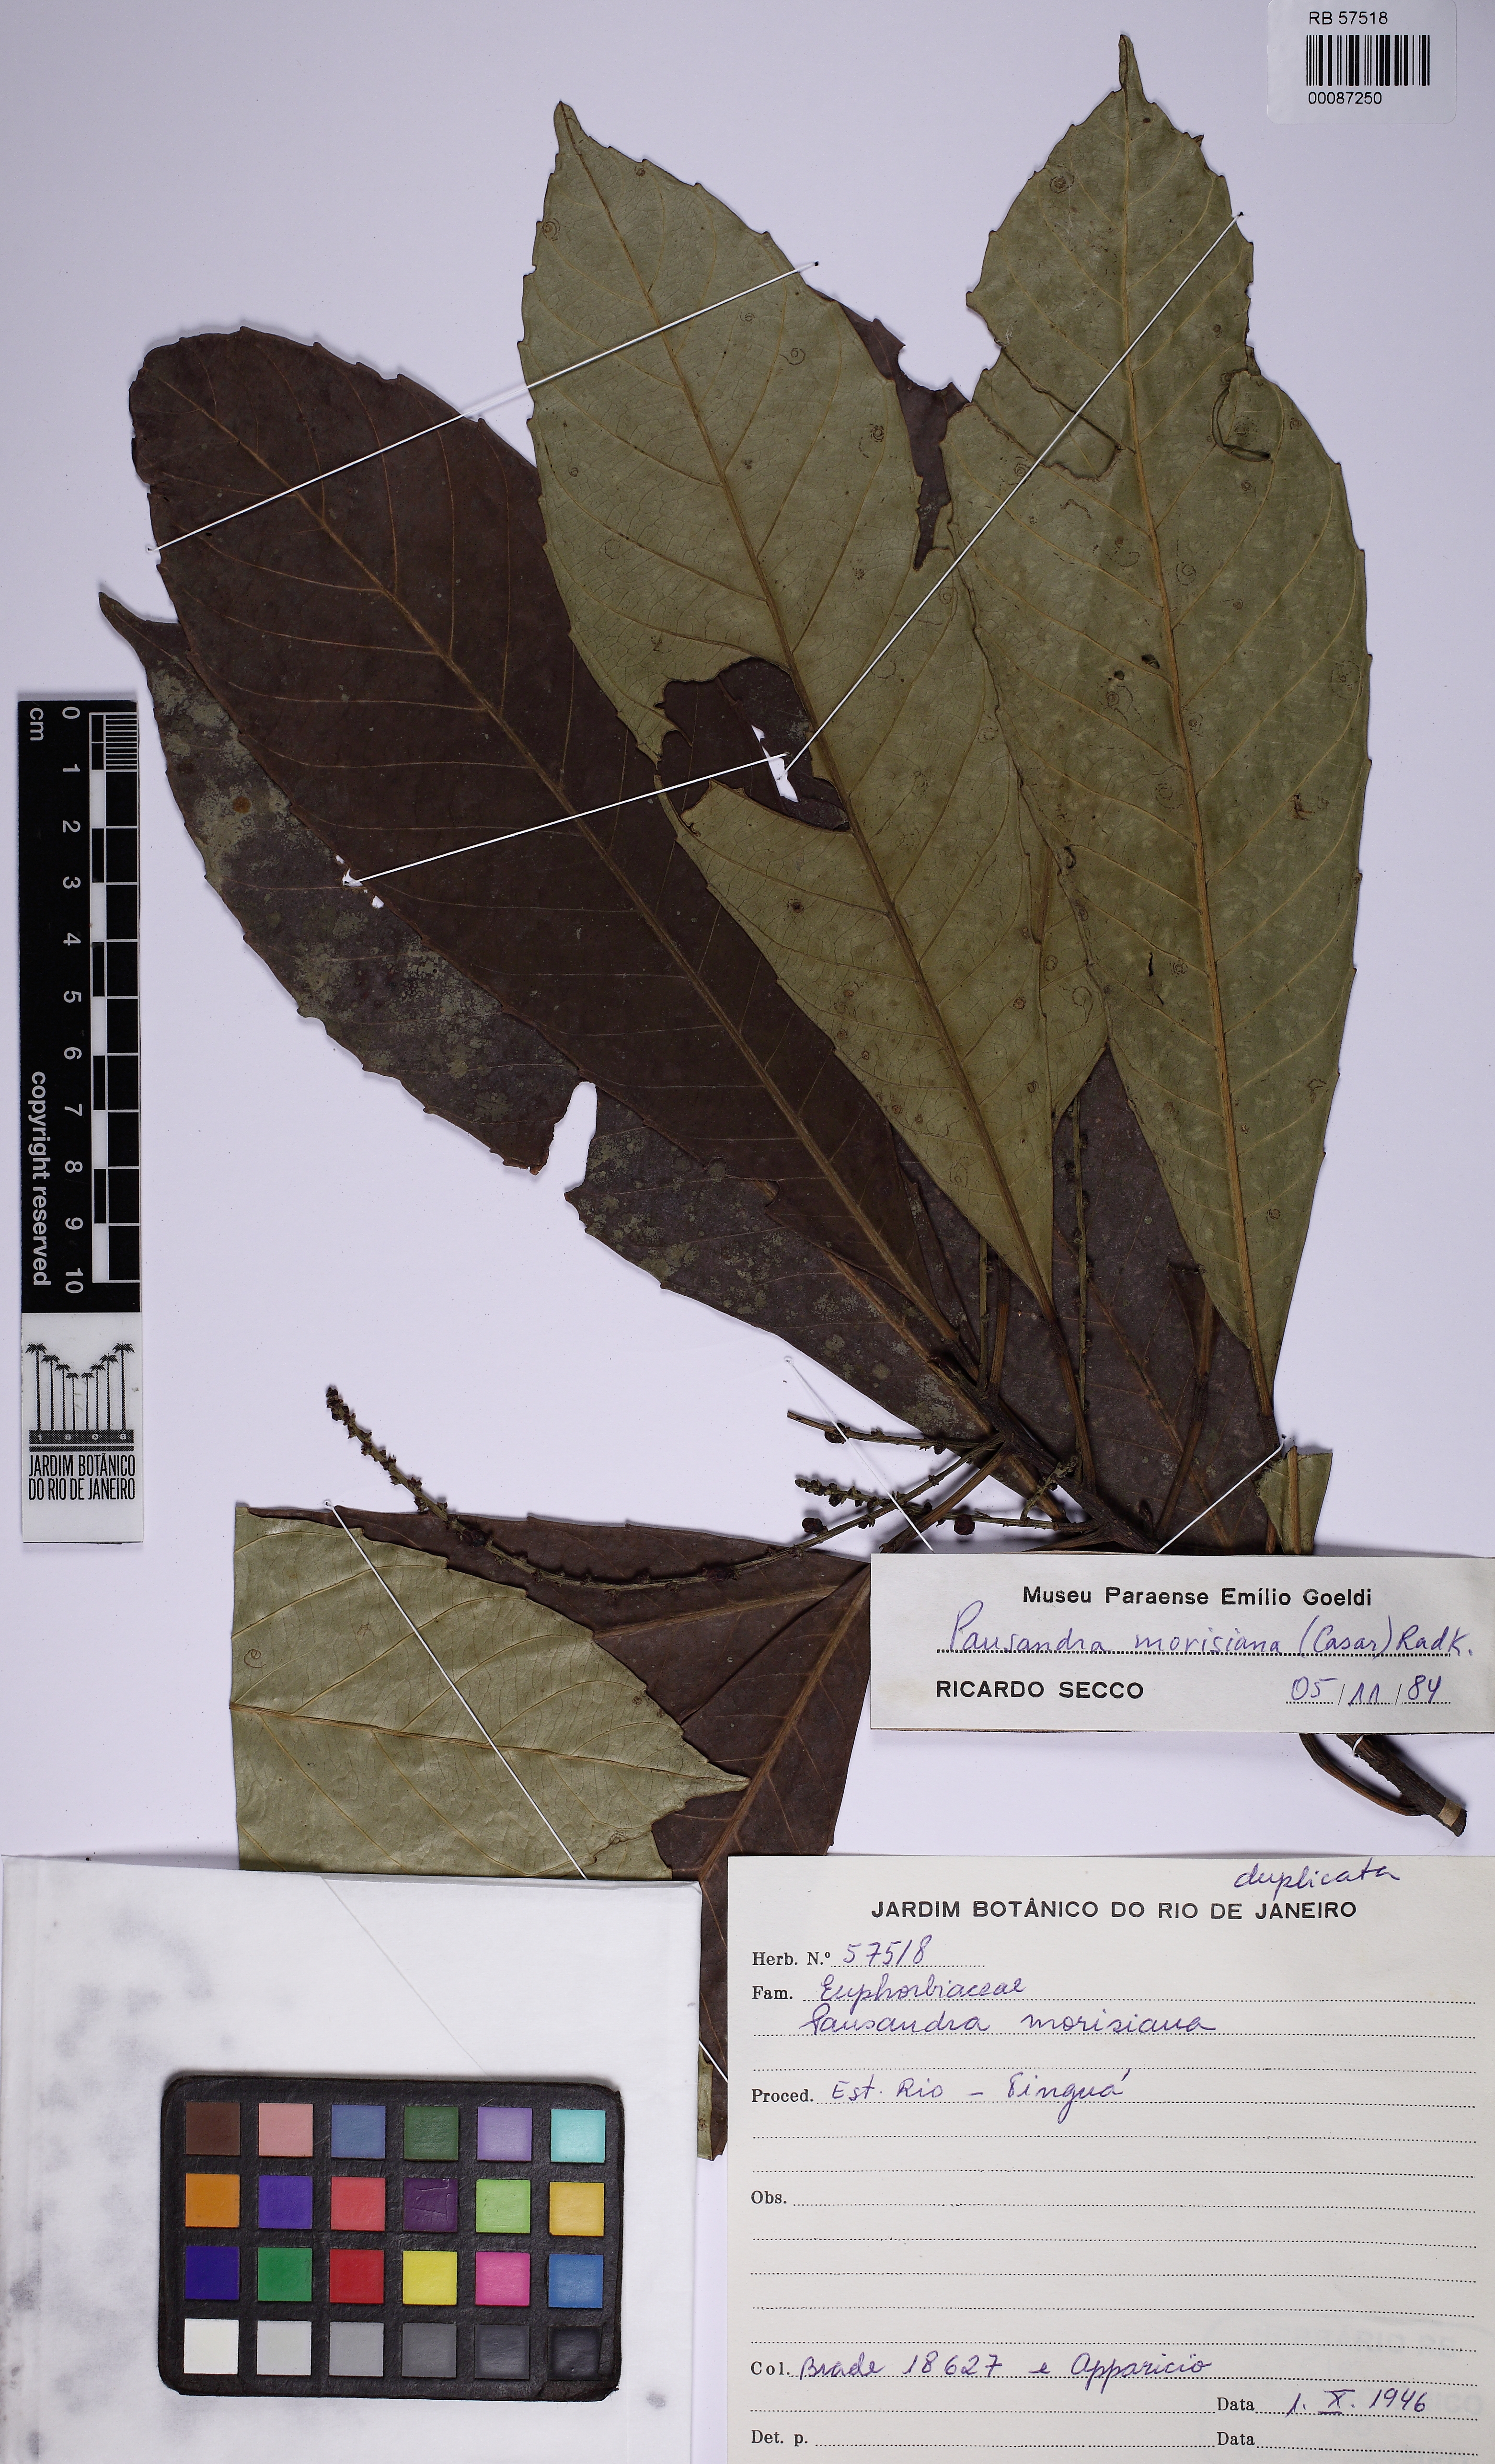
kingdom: Plantae
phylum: Tracheophyta
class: Magnoliopsida
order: Malpighiales
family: Euphorbiaceae
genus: Pausandra
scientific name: Pausandra morisiana
